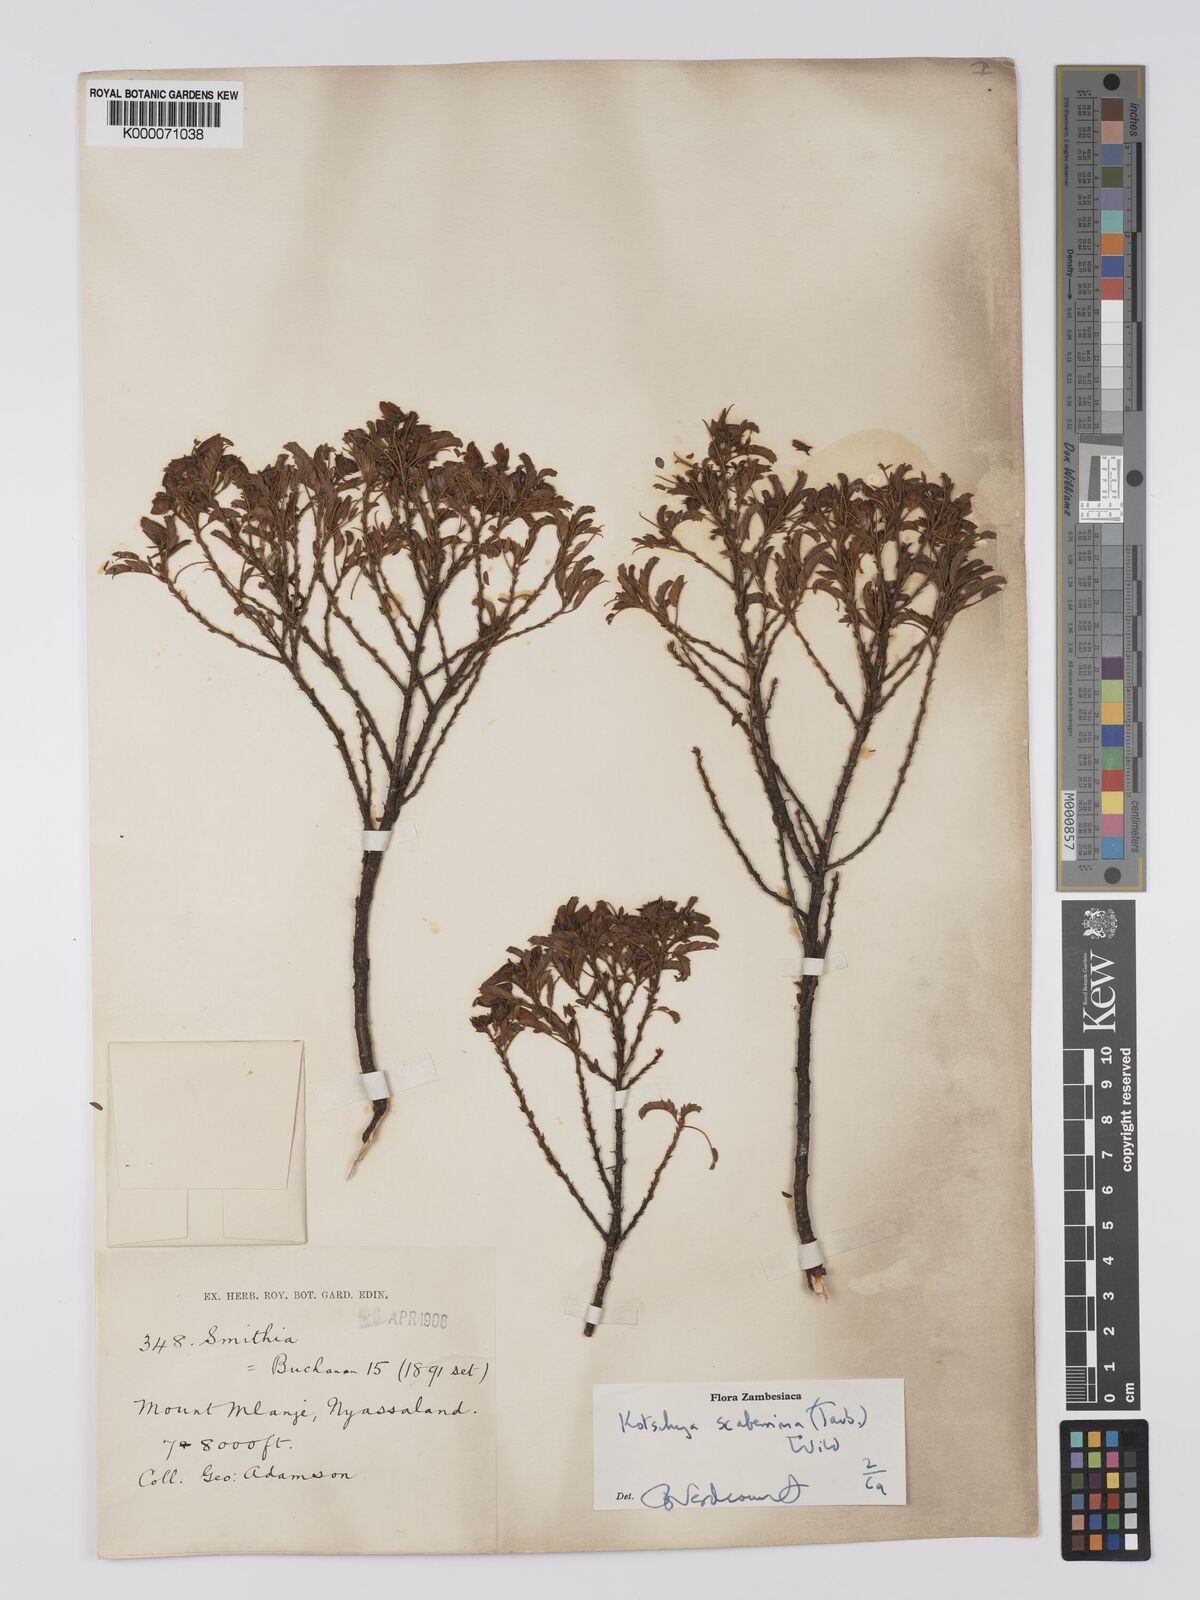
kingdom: Plantae
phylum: Tracheophyta
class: Magnoliopsida
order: Fabales
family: Fabaceae
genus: Kotschya
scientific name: Kotschya scaberrima
